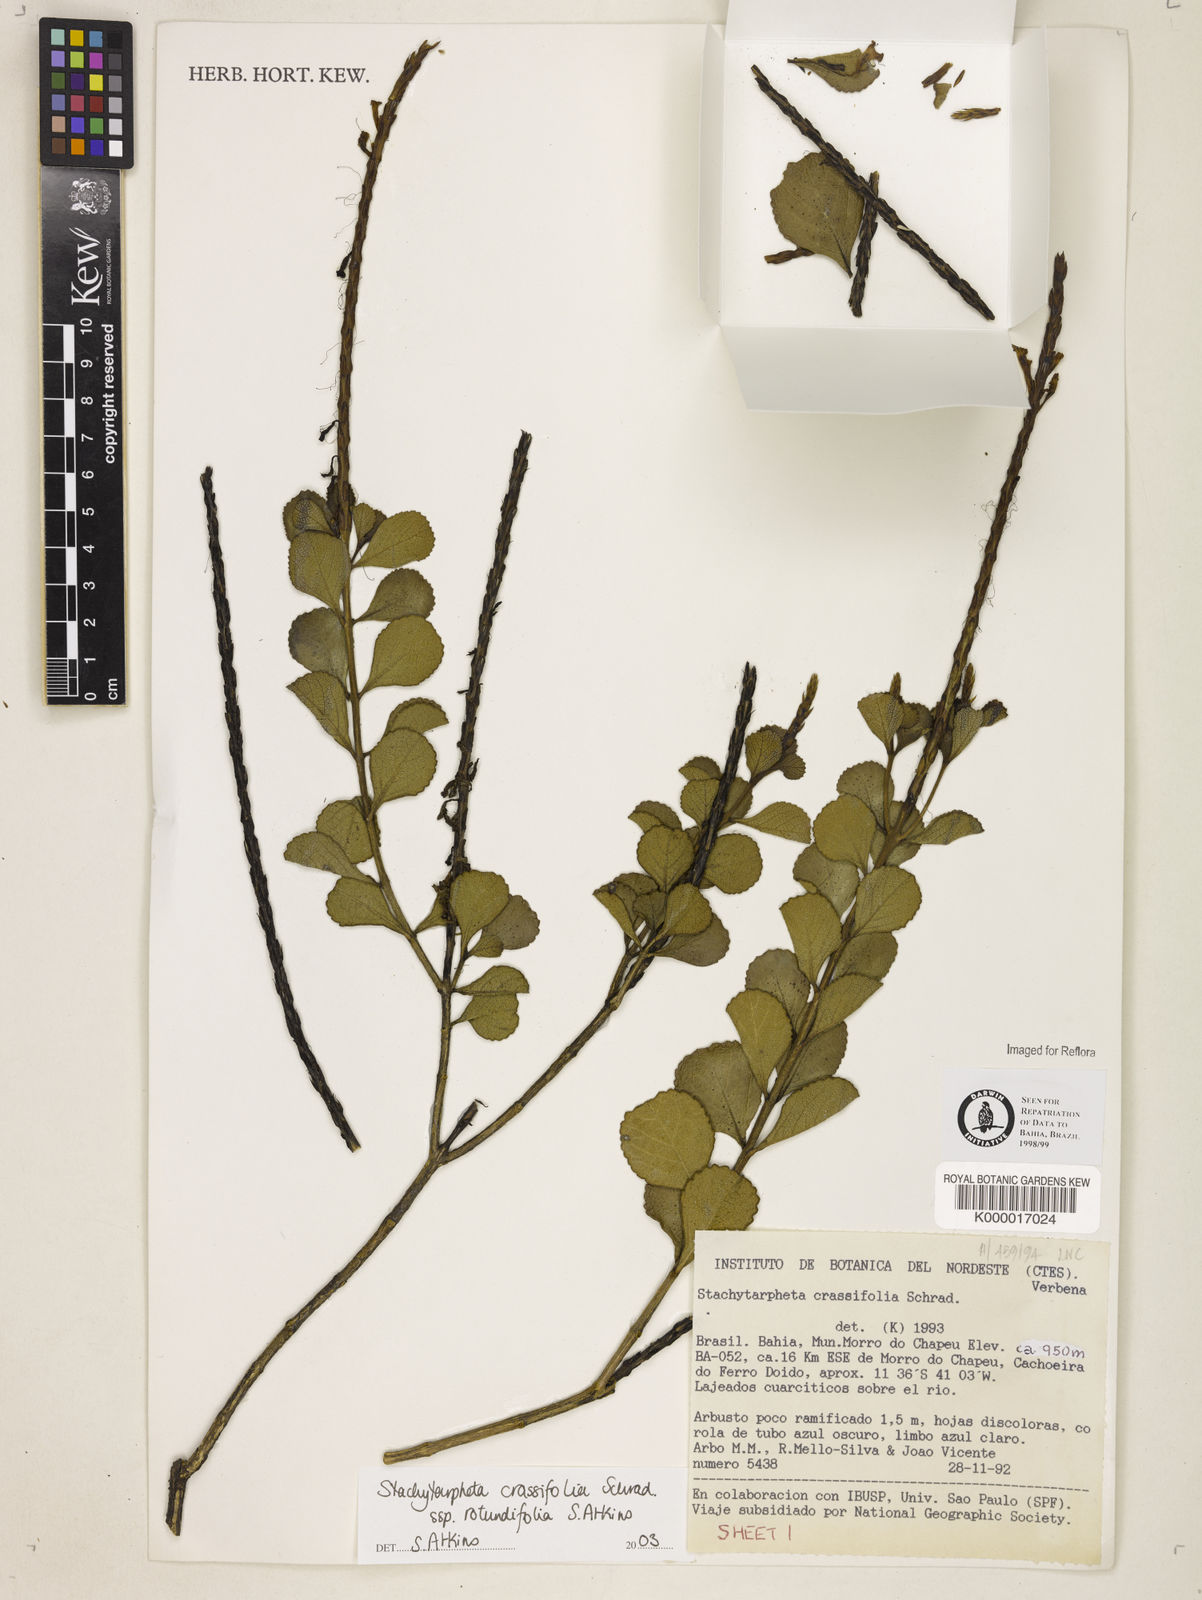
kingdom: Plantae
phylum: Tracheophyta
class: Magnoliopsida
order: Lamiales
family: Verbenaceae
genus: Stachytarpheta
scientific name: Stachytarpheta crassifolia
